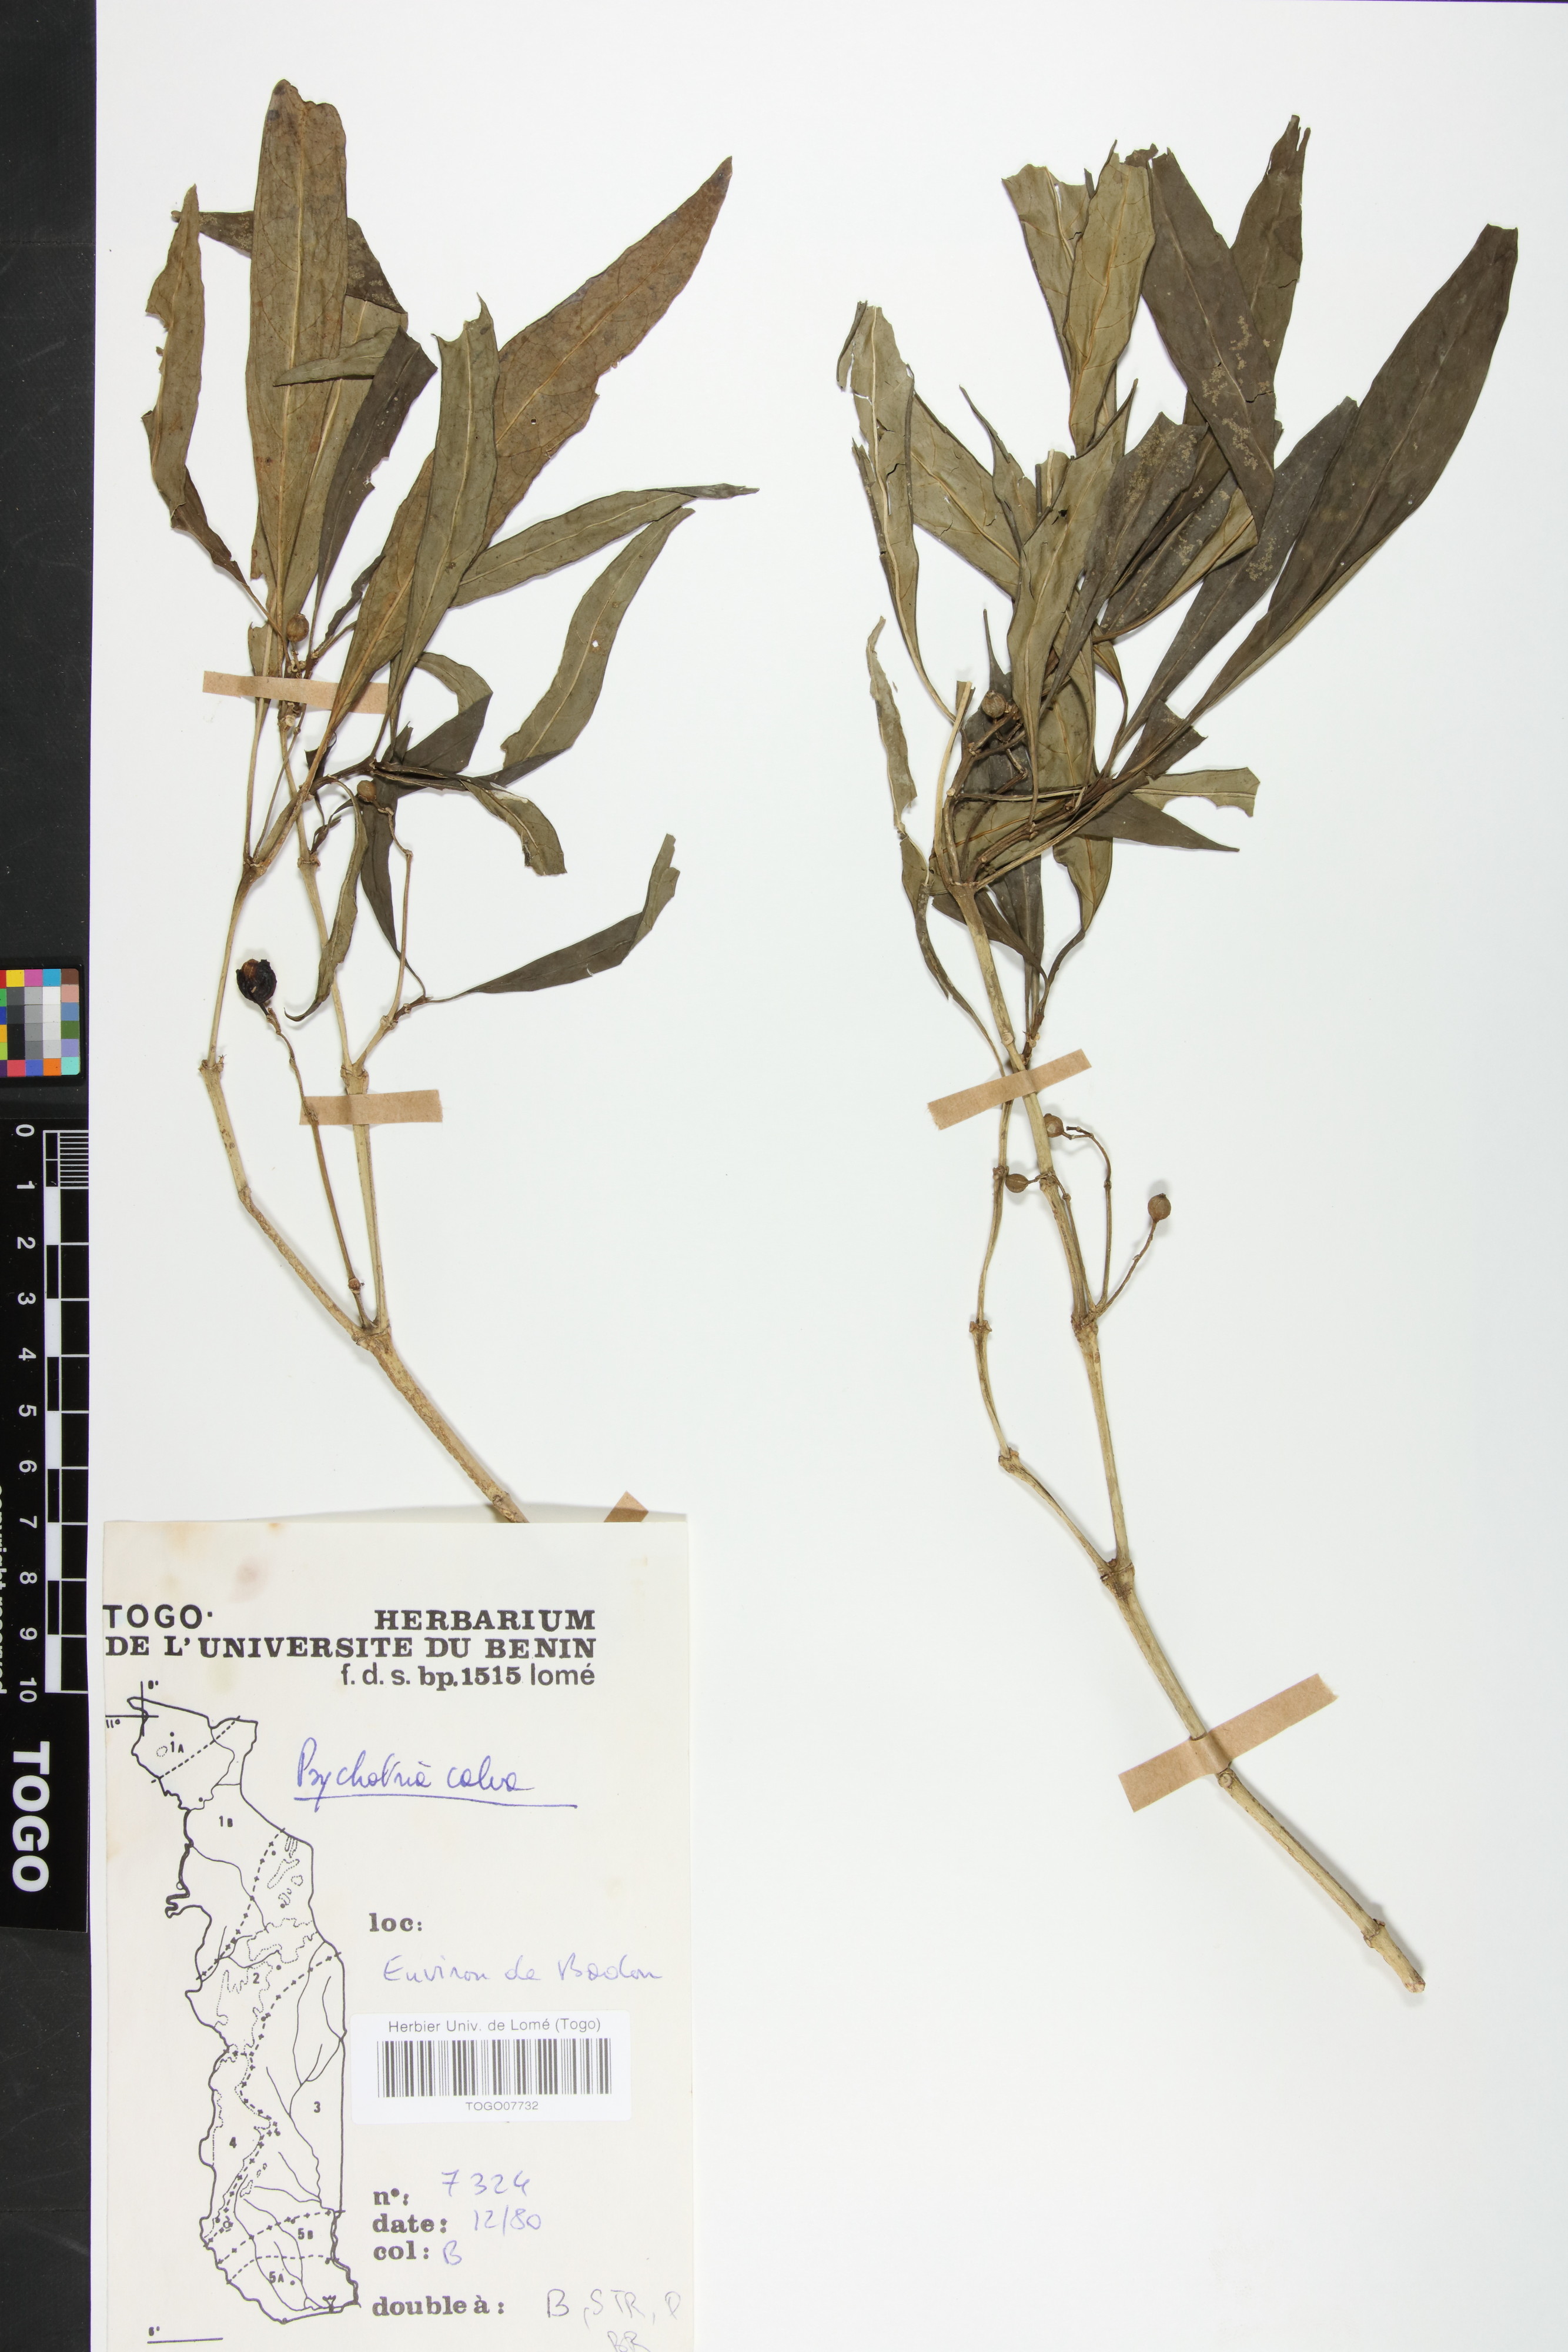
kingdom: Plantae
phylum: Tracheophyta
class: Magnoliopsida
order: Gentianales
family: Rubiaceae
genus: Psychotria
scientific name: Psychotria calva
